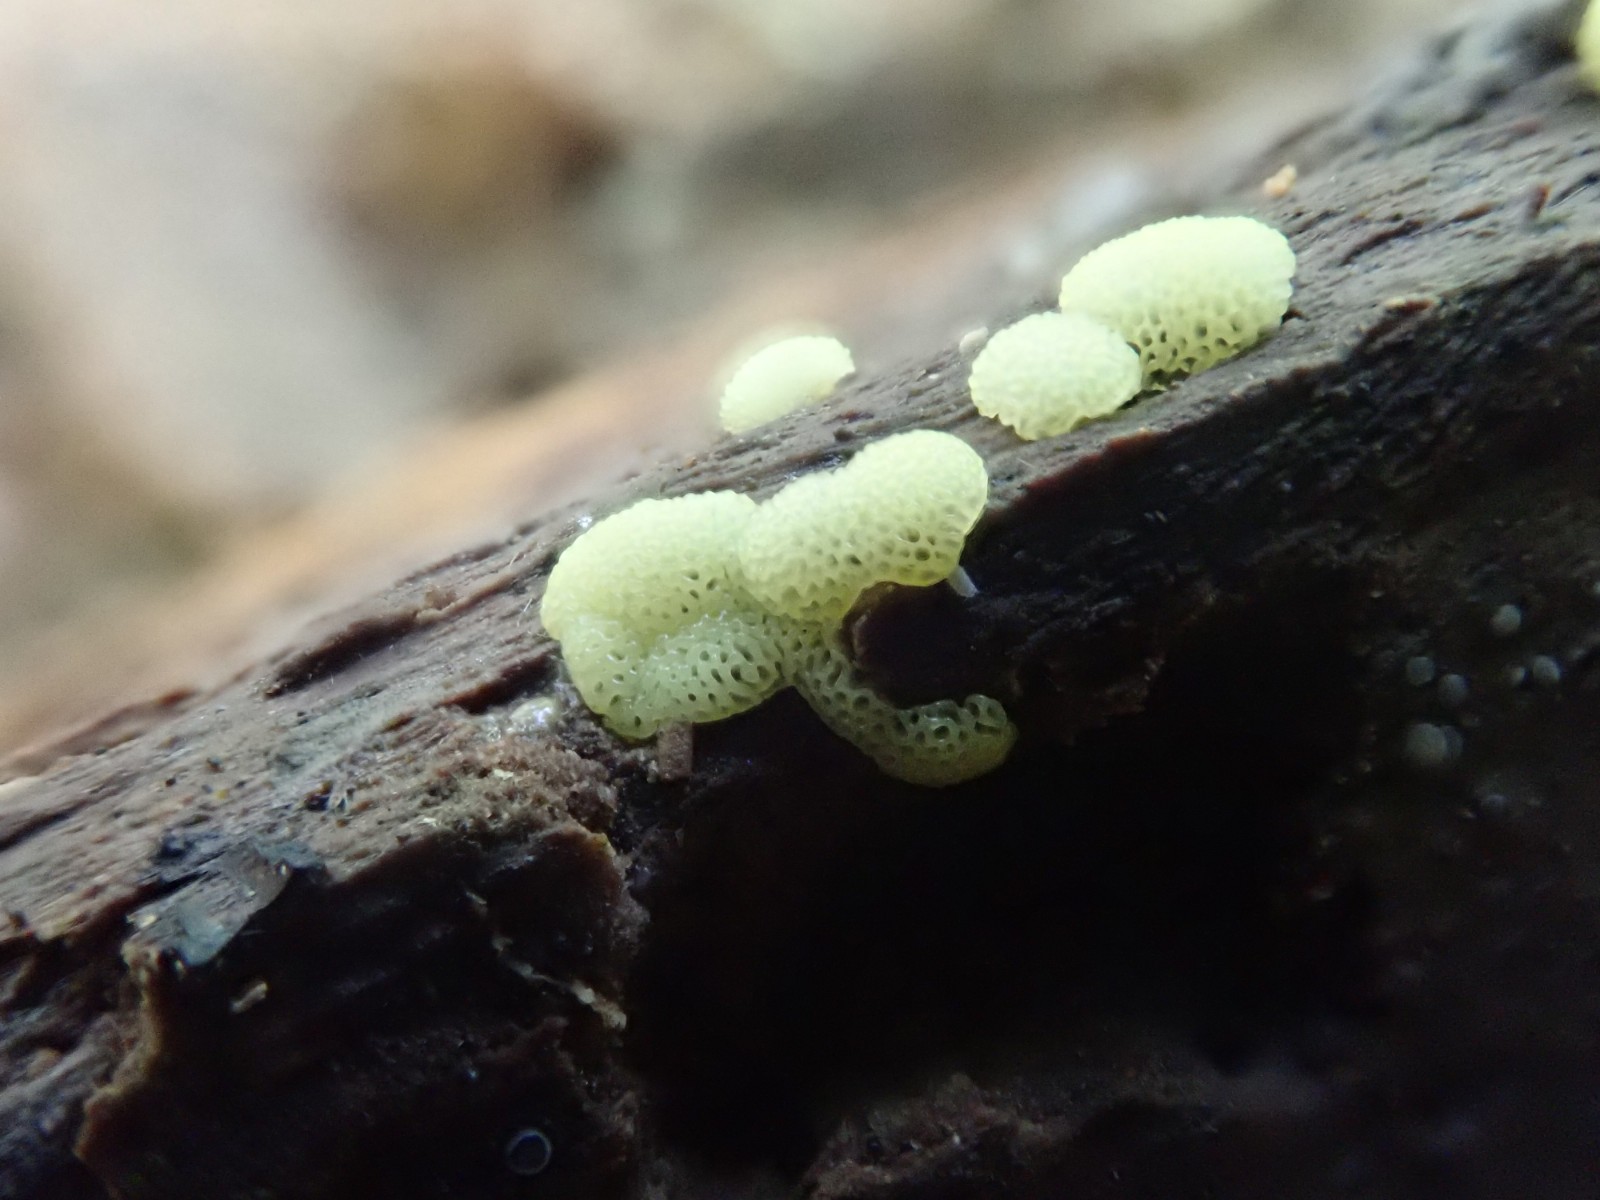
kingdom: Protozoa
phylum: Mycetozoa
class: Protosteliomycetes
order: Ceratiomyxales
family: Ceratiomyxaceae
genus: Ceratiomyxa
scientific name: Ceratiomyxa fruticulosa
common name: Honeycomb coral slime mold
